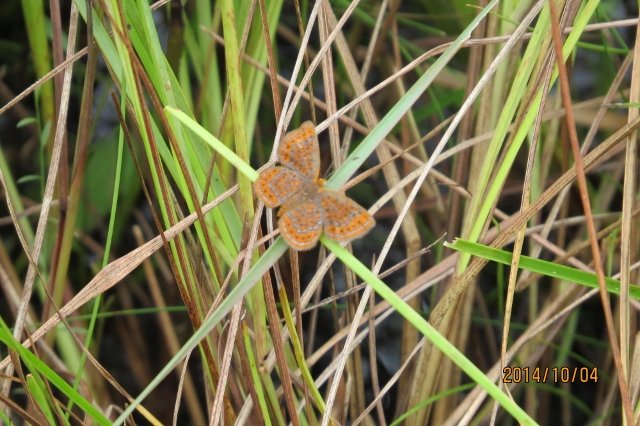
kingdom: Animalia
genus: Calephelis
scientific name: Calephelis virginiensis
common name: Little Metalmark
